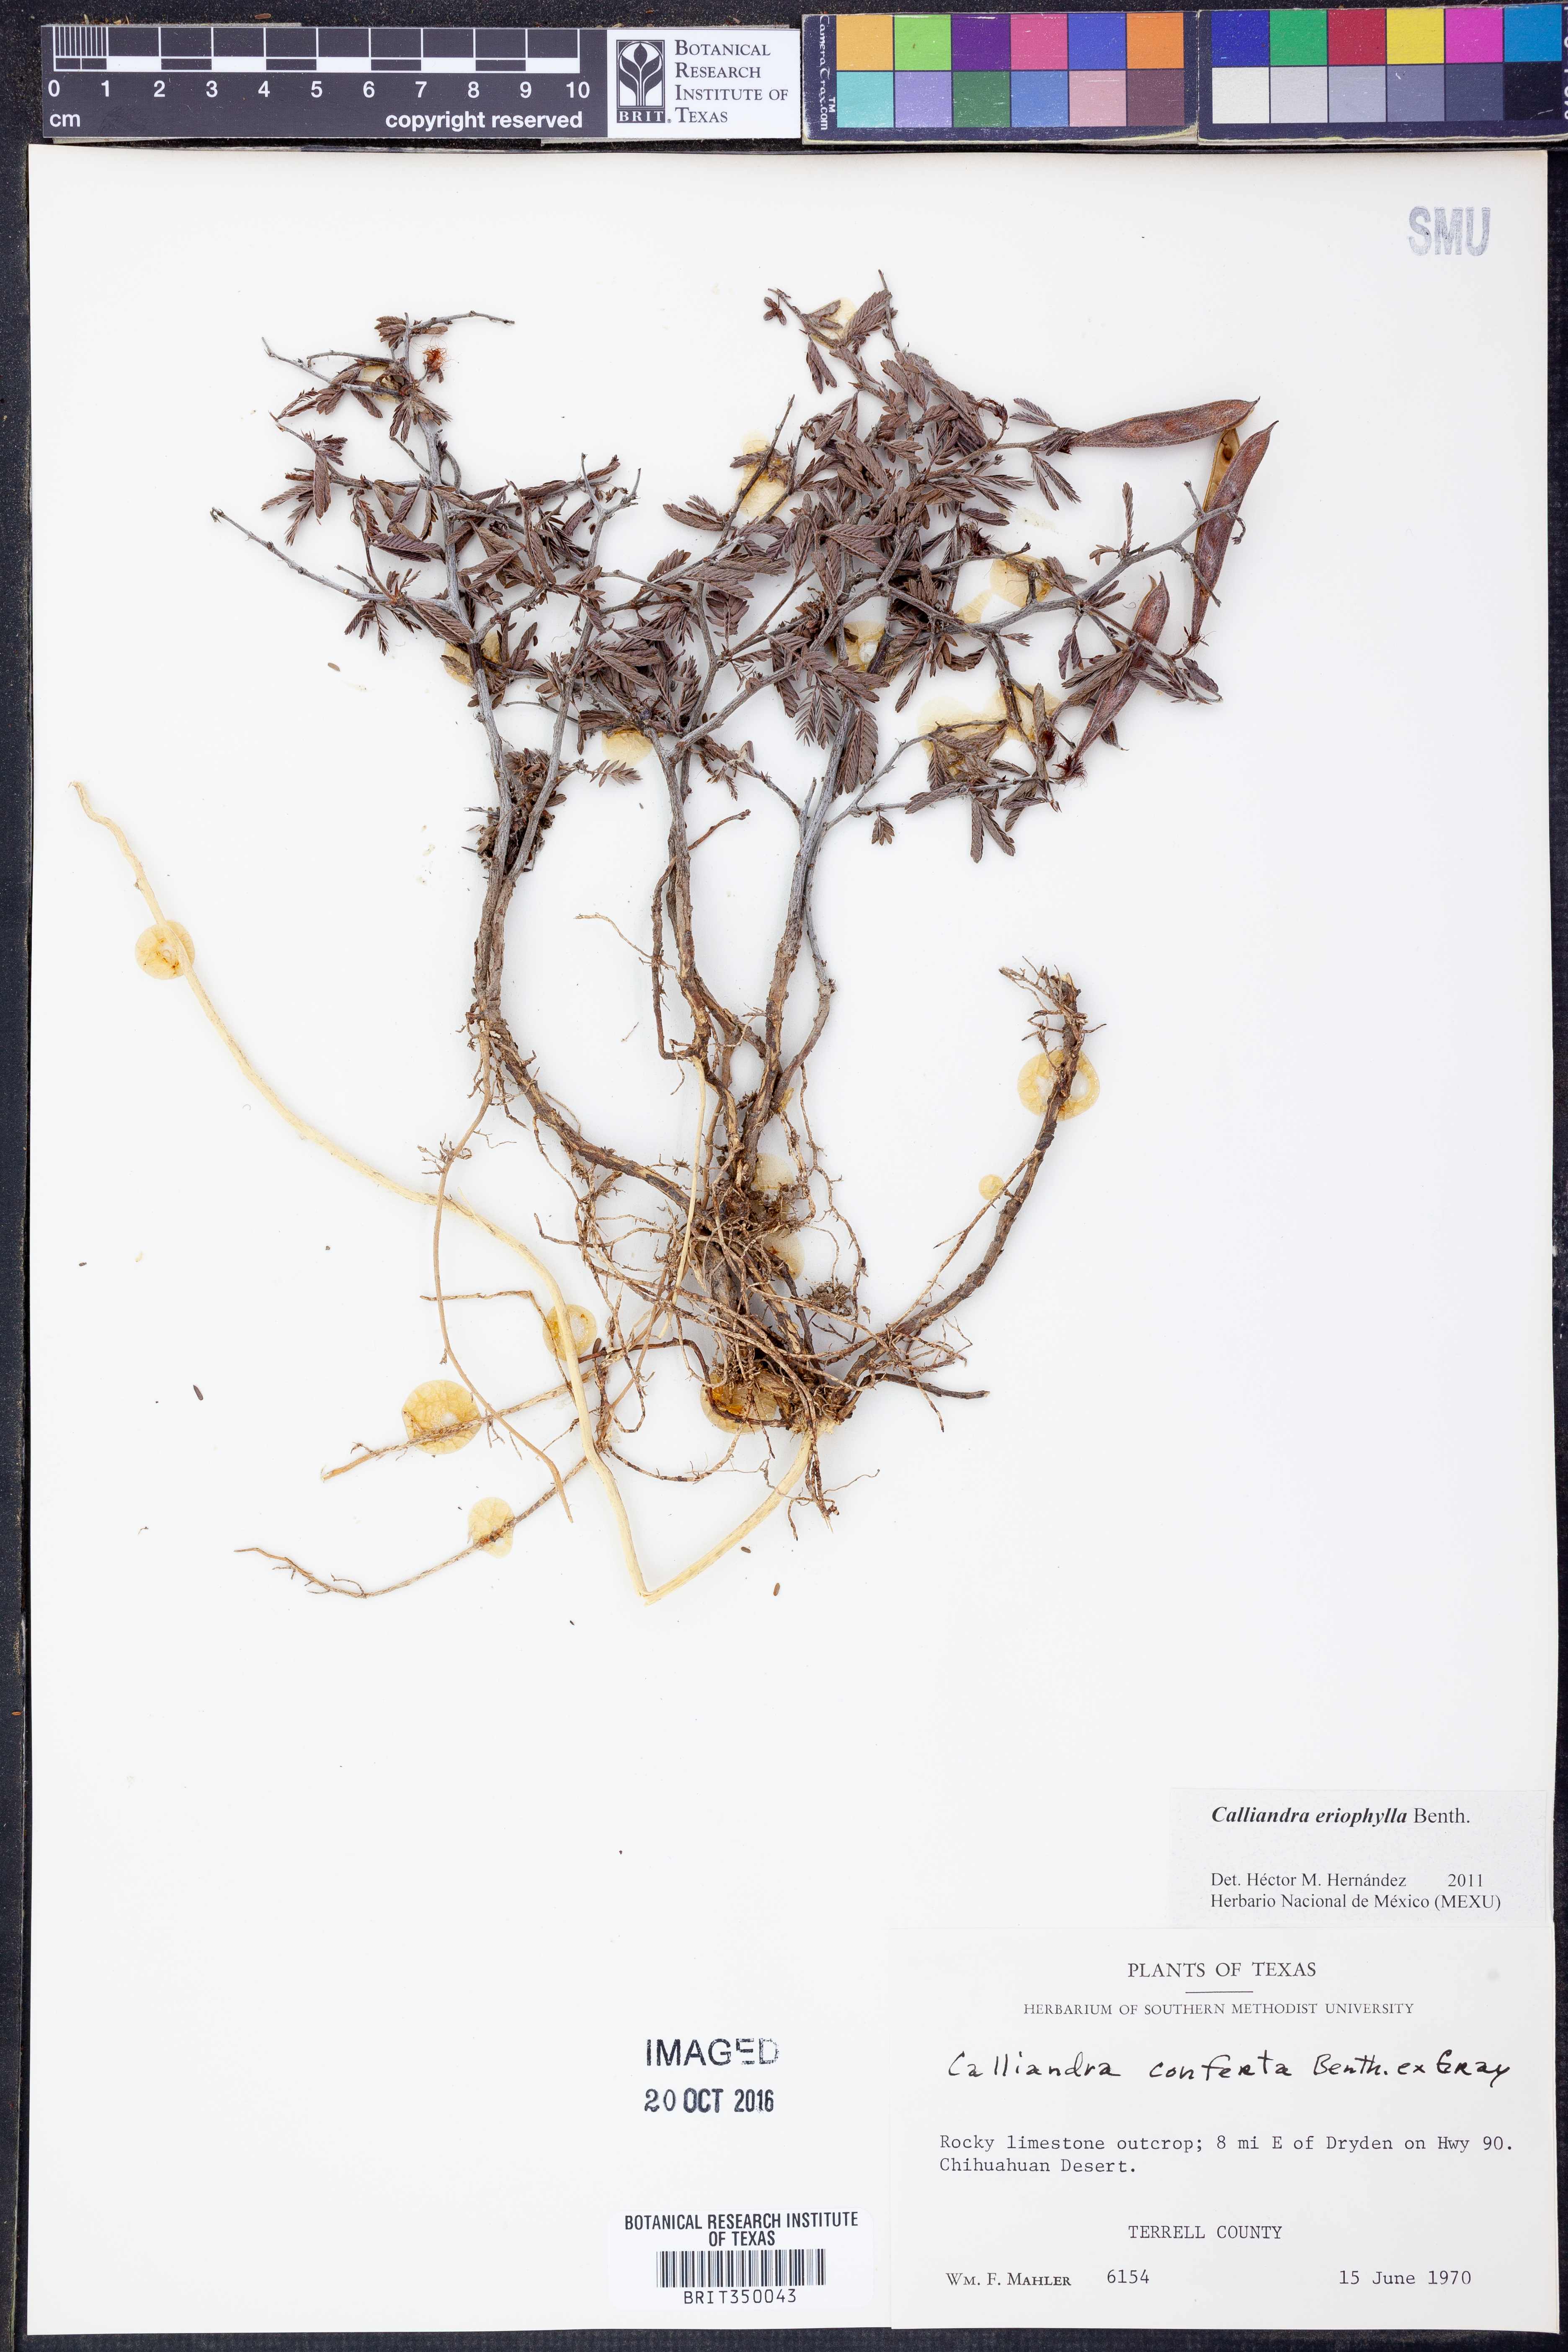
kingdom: Plantae
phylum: Tracheophyta
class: Magnoliopsida
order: Fabales
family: Fabaceae
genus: Calliandra
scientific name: Calliandra eriophylla
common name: Fairy-duster
